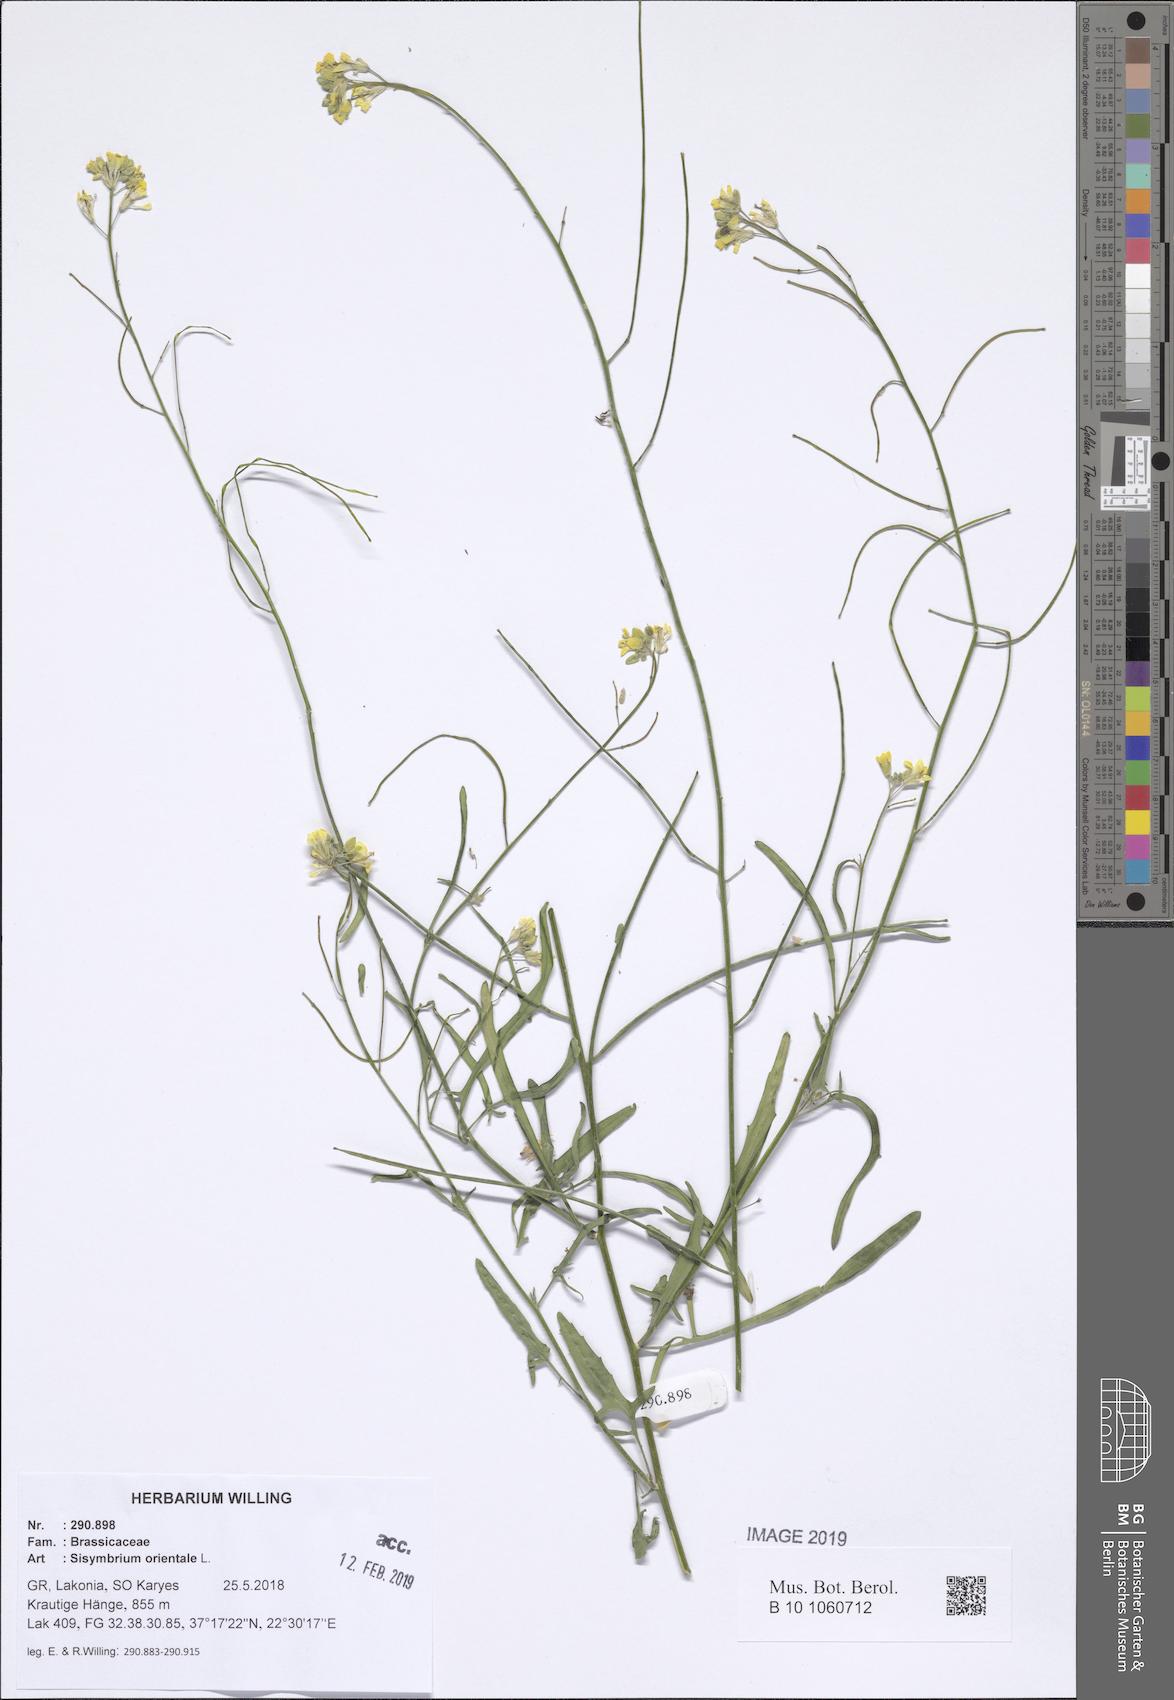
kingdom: Plantae
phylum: Tracheophyta
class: Magnoliopsida
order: Brassicales
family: Brassicaceae
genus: Sisymbrium
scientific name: Sisymbrium orientale
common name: Eastern rocket
